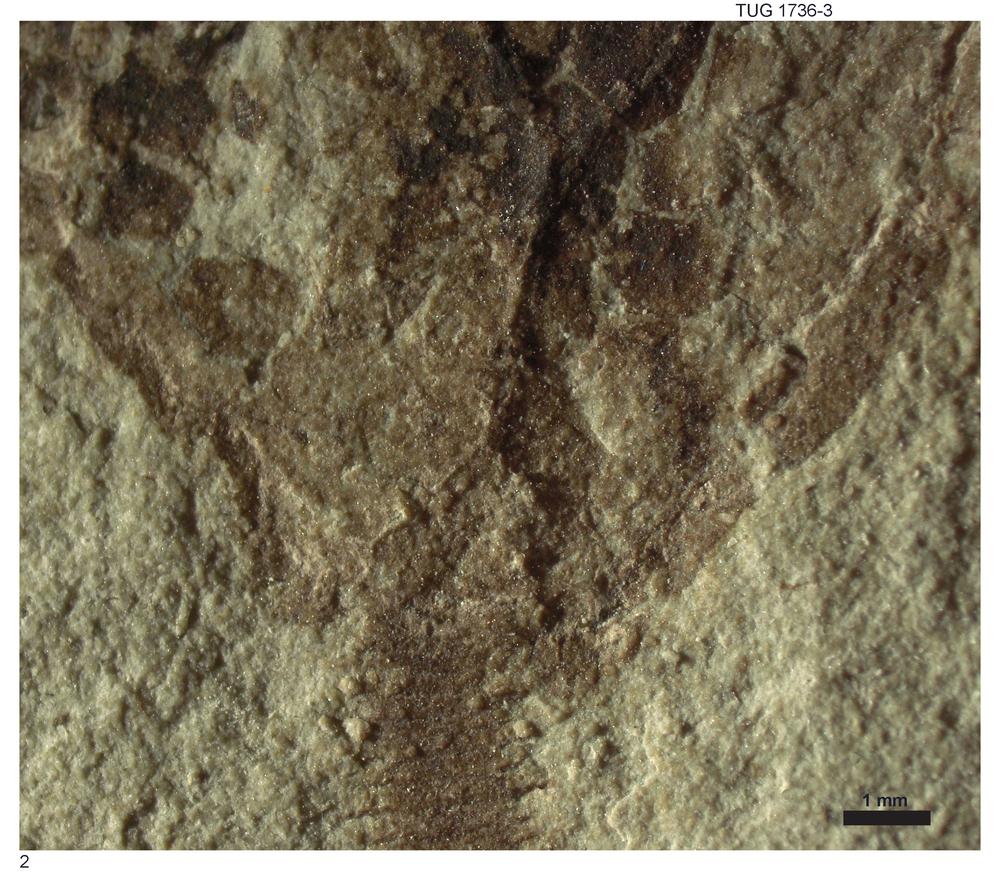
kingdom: Animalia
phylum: Echinodermata
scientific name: Echinodermata
